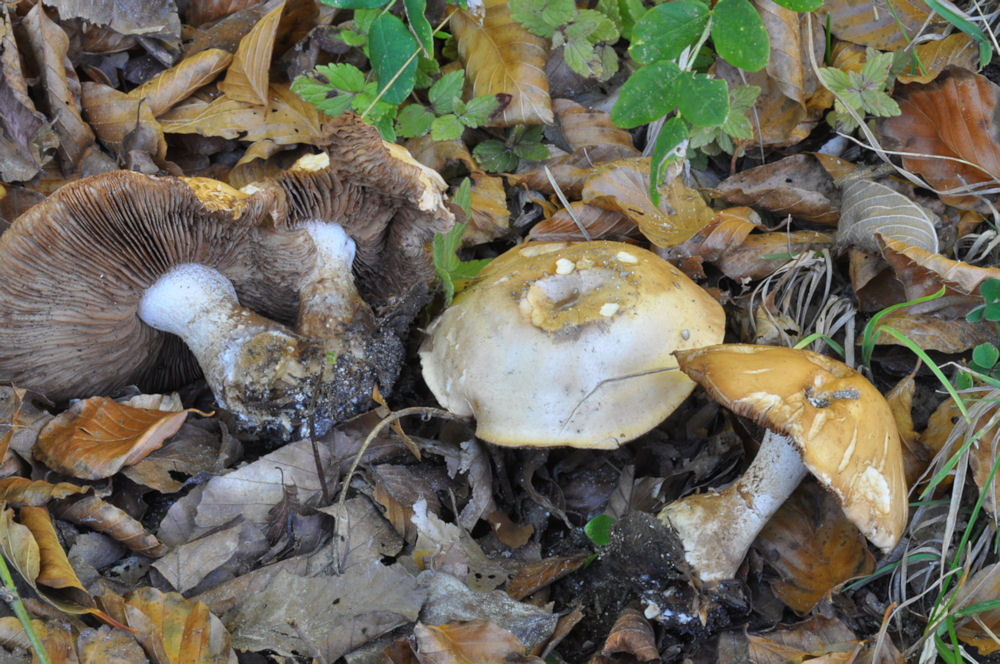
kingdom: Fungi
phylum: Basidiomycota
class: Agaricomycetes
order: Agaricales
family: Cortinariaceae
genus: Cortinarius
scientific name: Cortinarius largus
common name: violetrandet slørhat
